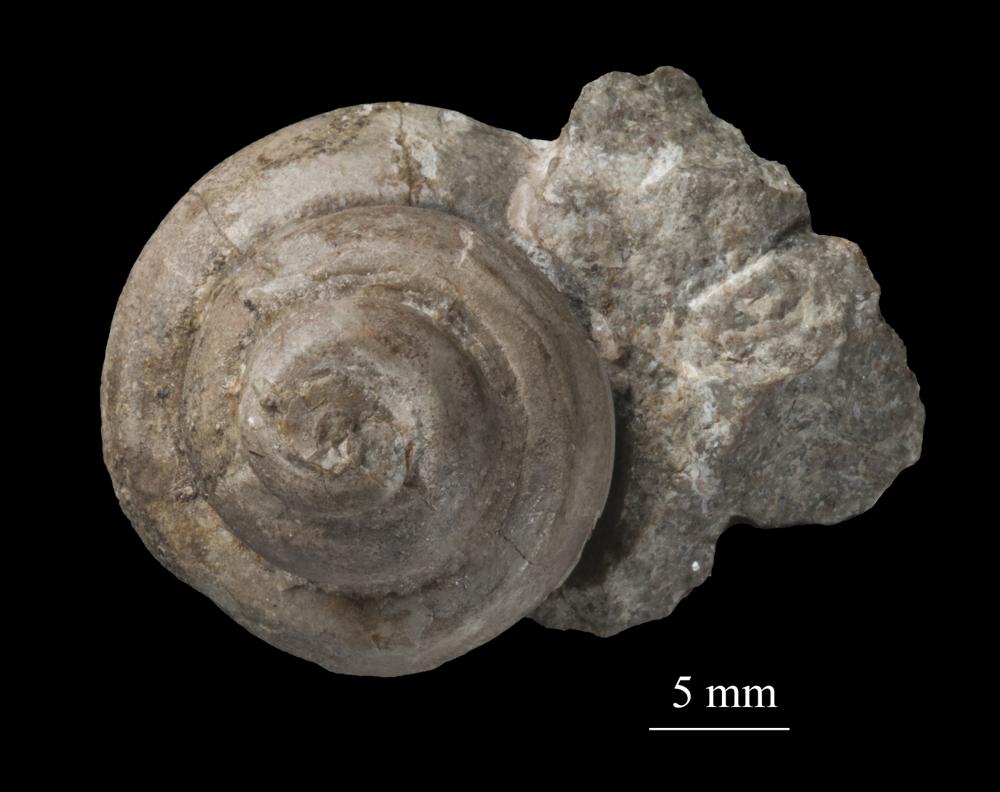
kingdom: Animalia
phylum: Mollusca
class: Gastropoda
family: Lophospiridae
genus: Proturritella
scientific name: Proturritella Turbinites bicarinatus
